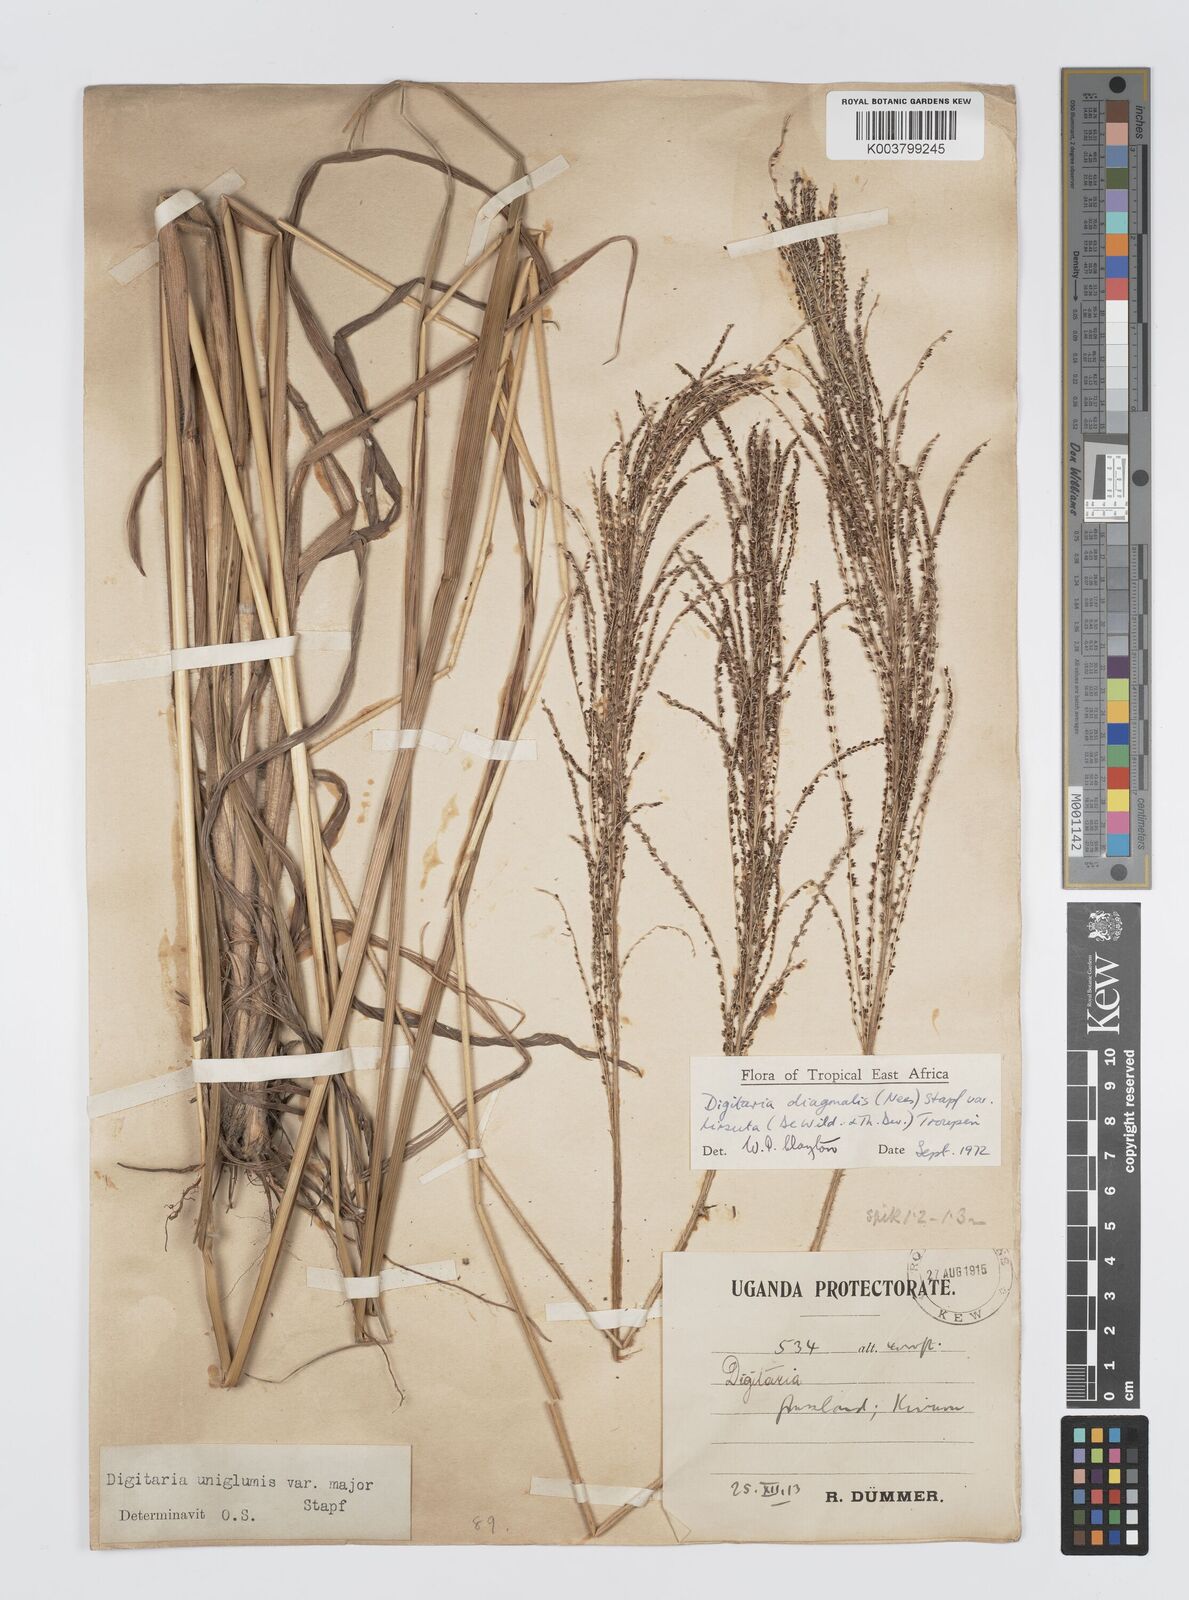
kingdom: Plantae
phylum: Tracheophyta
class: Liliopsida
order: Poales
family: Poaceae
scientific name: Poaceae
